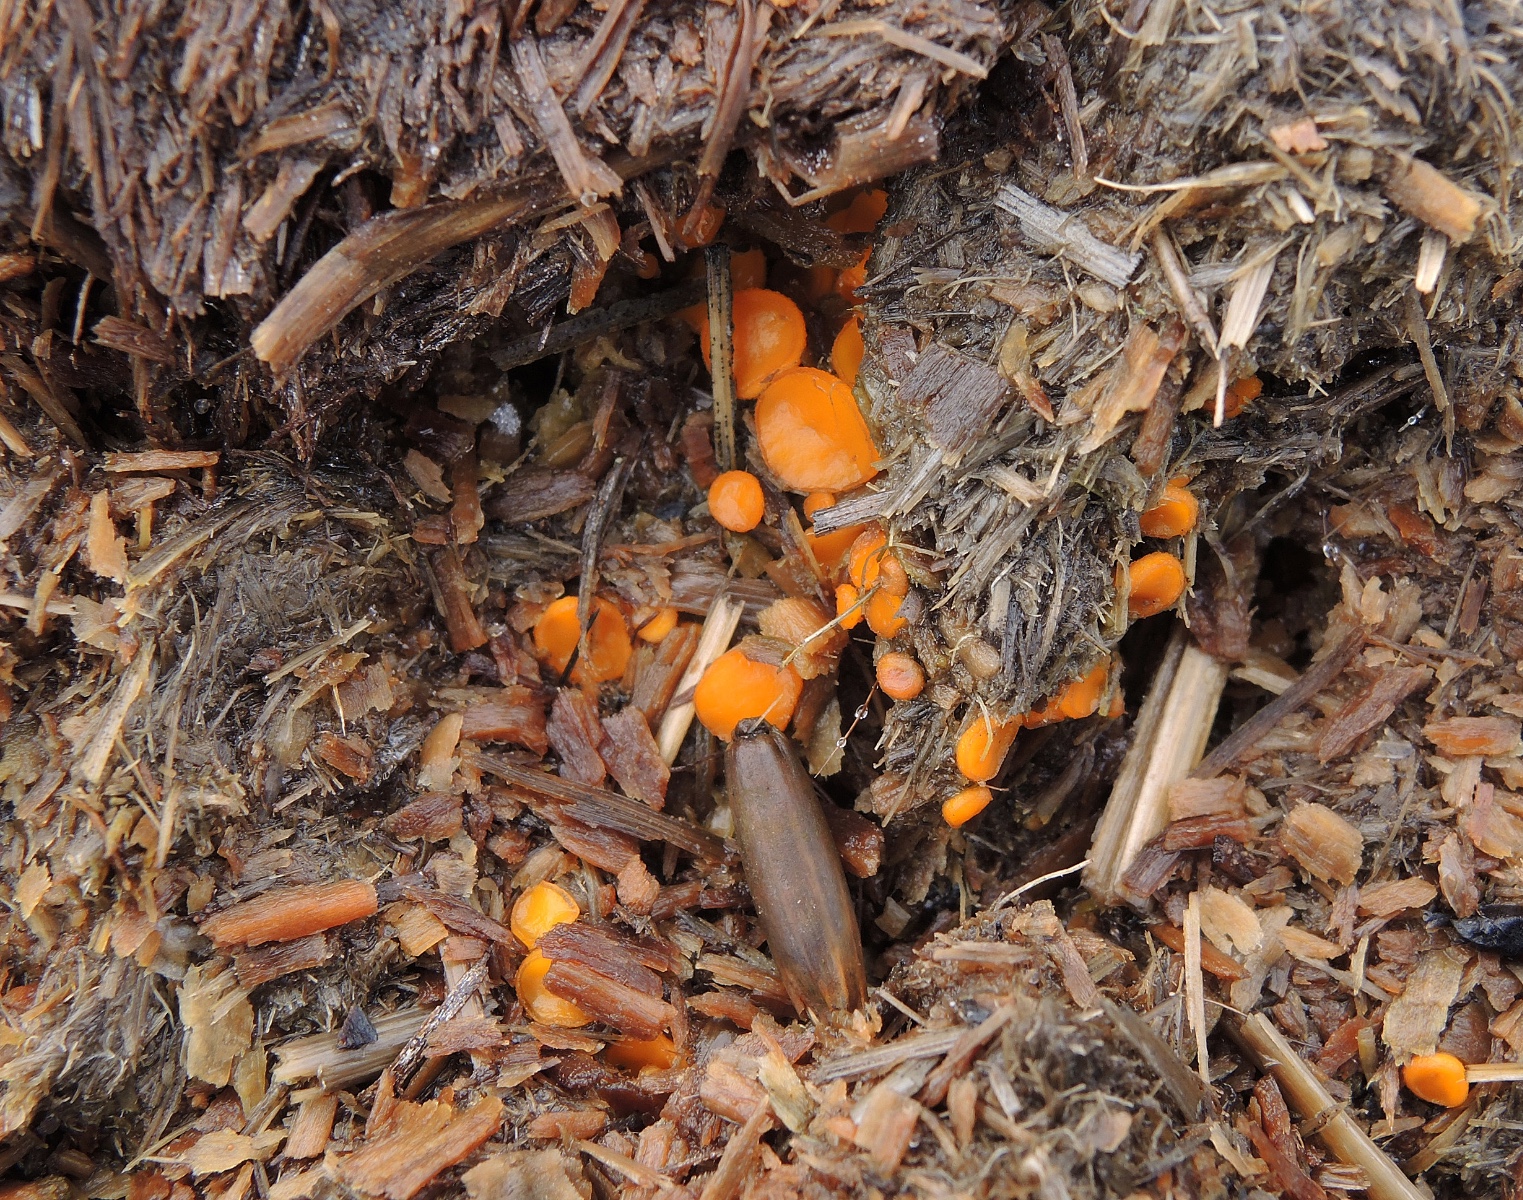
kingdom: Fungi
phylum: Ascomycota
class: Pezizomycetes
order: Pezizales
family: Pyronemataceae
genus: Cheilymenia
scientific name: Cheilymenia granulata
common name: møgbæger
